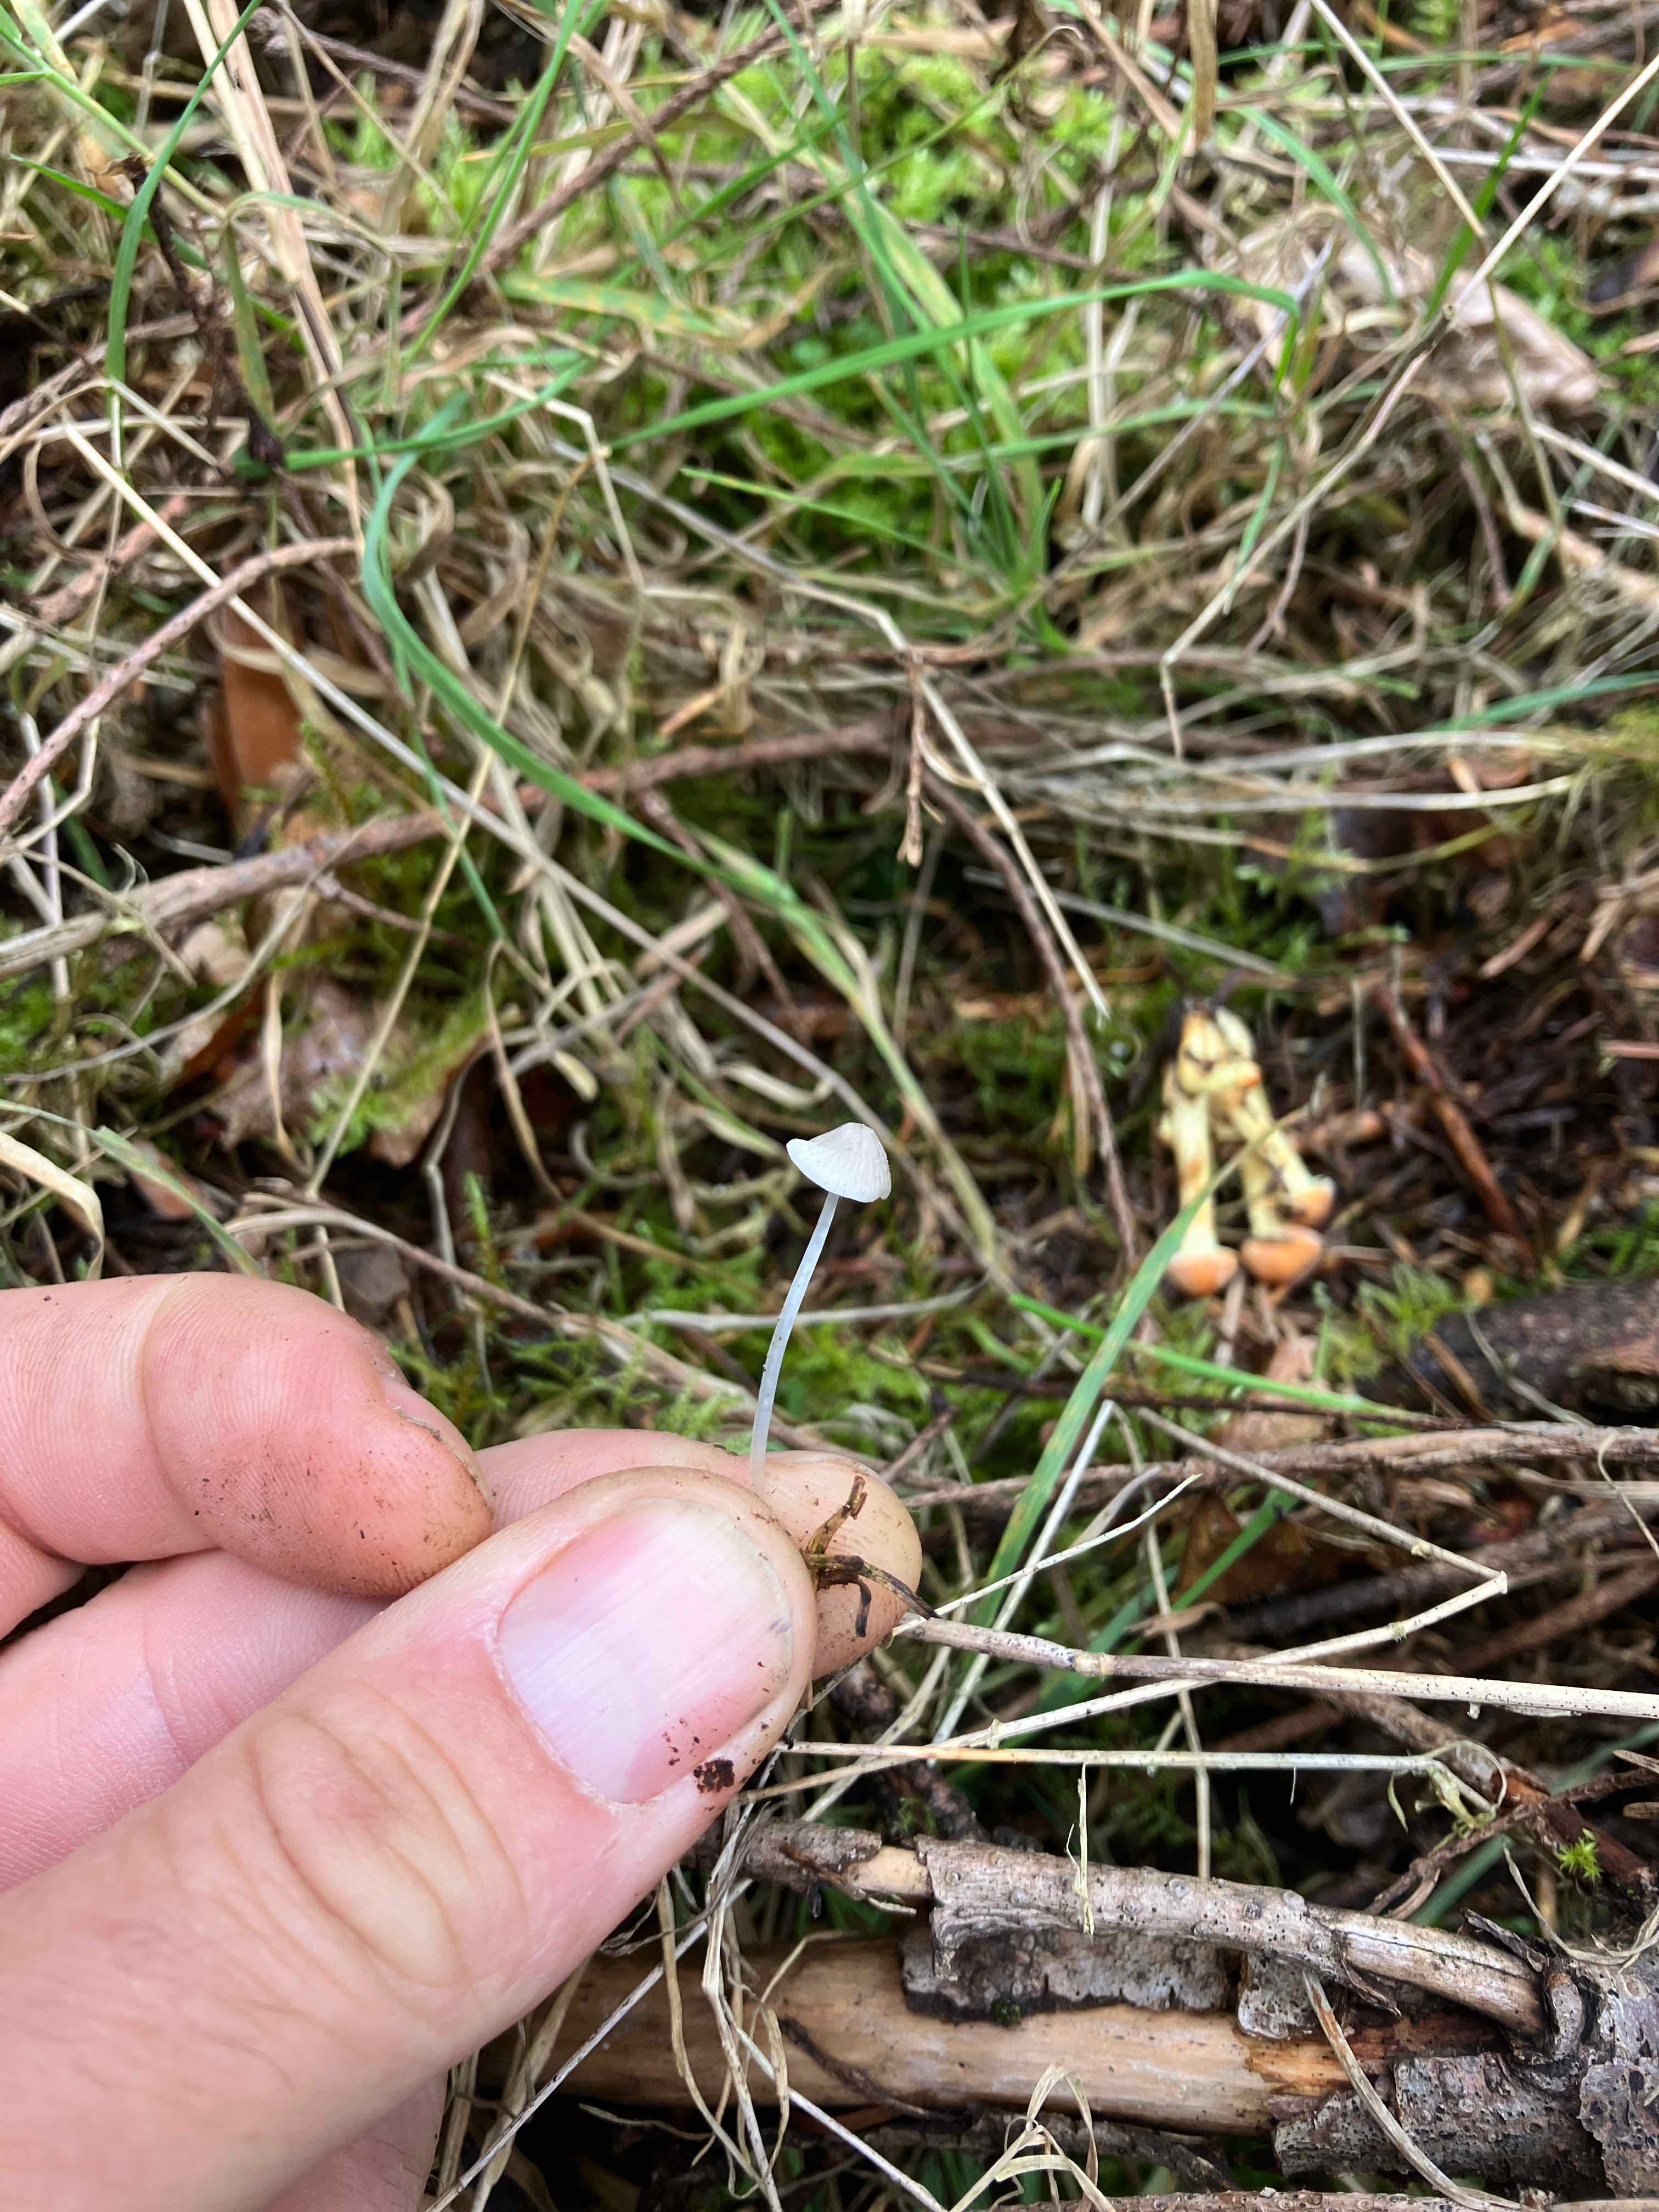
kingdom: Fungi
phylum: Basidiomycota
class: Agaricomycetes
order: Agaricales
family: Mycenaceae
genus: Mycena
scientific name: Mycena
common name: huesvamp
